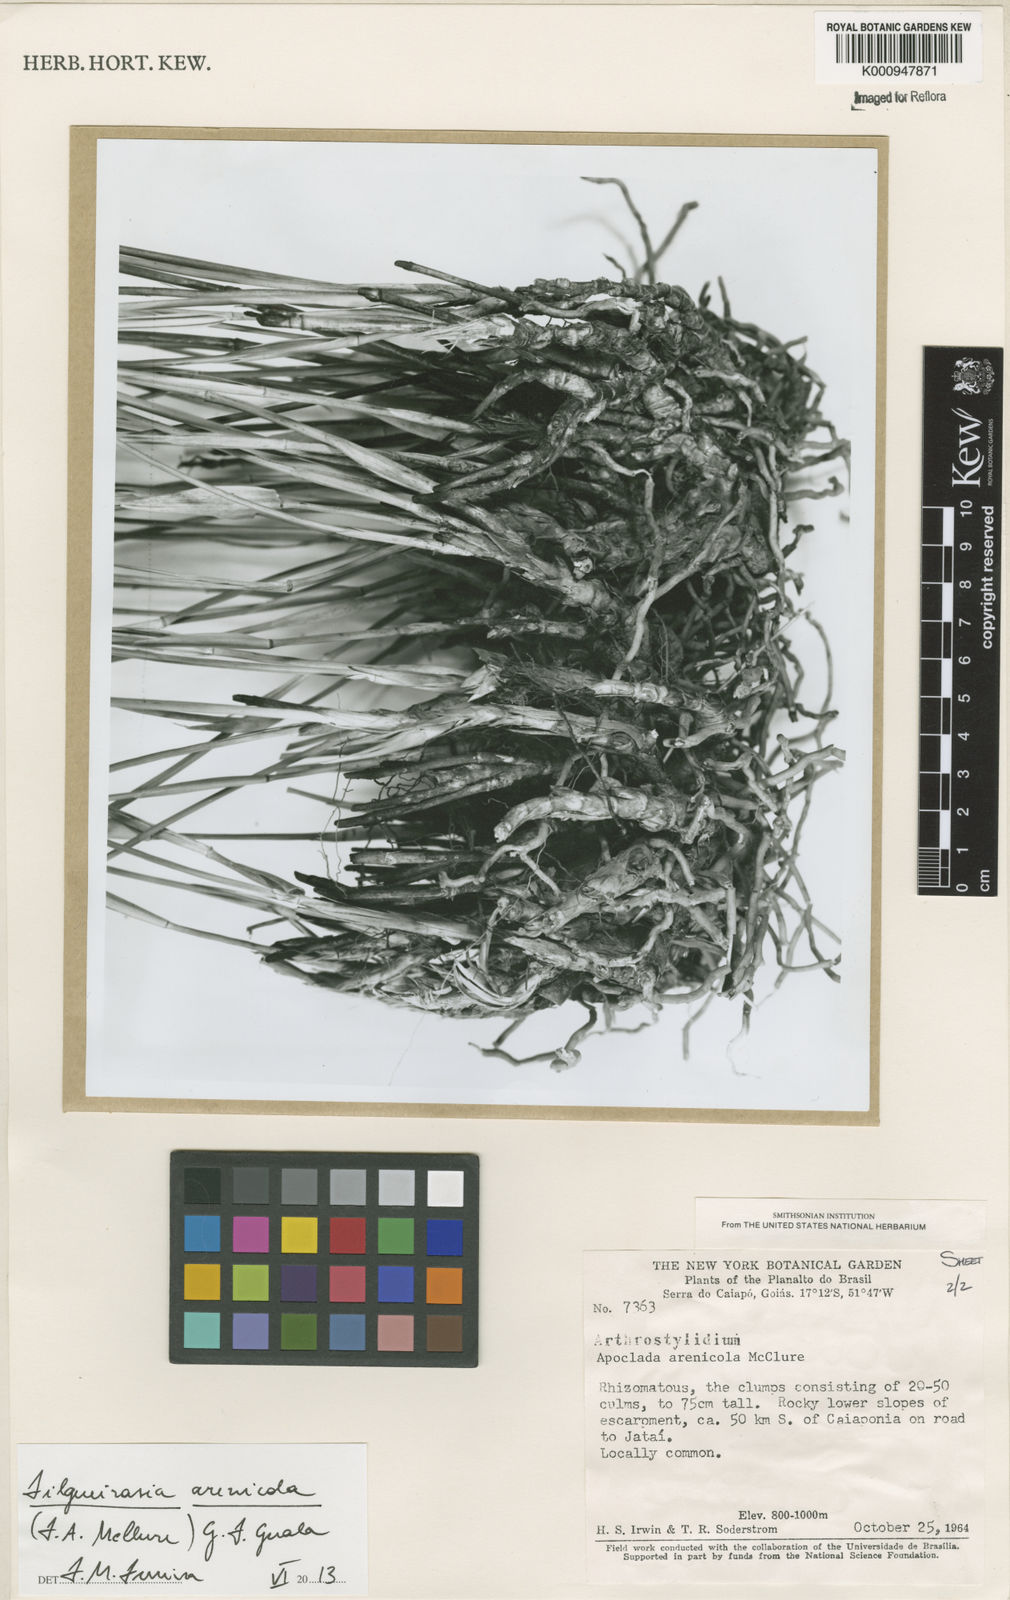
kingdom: Plantae
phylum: Tracheophyta
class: Liliopsida
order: Poales
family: Poaceae
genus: Filgueirasia
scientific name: Filgueirasia arenicola
